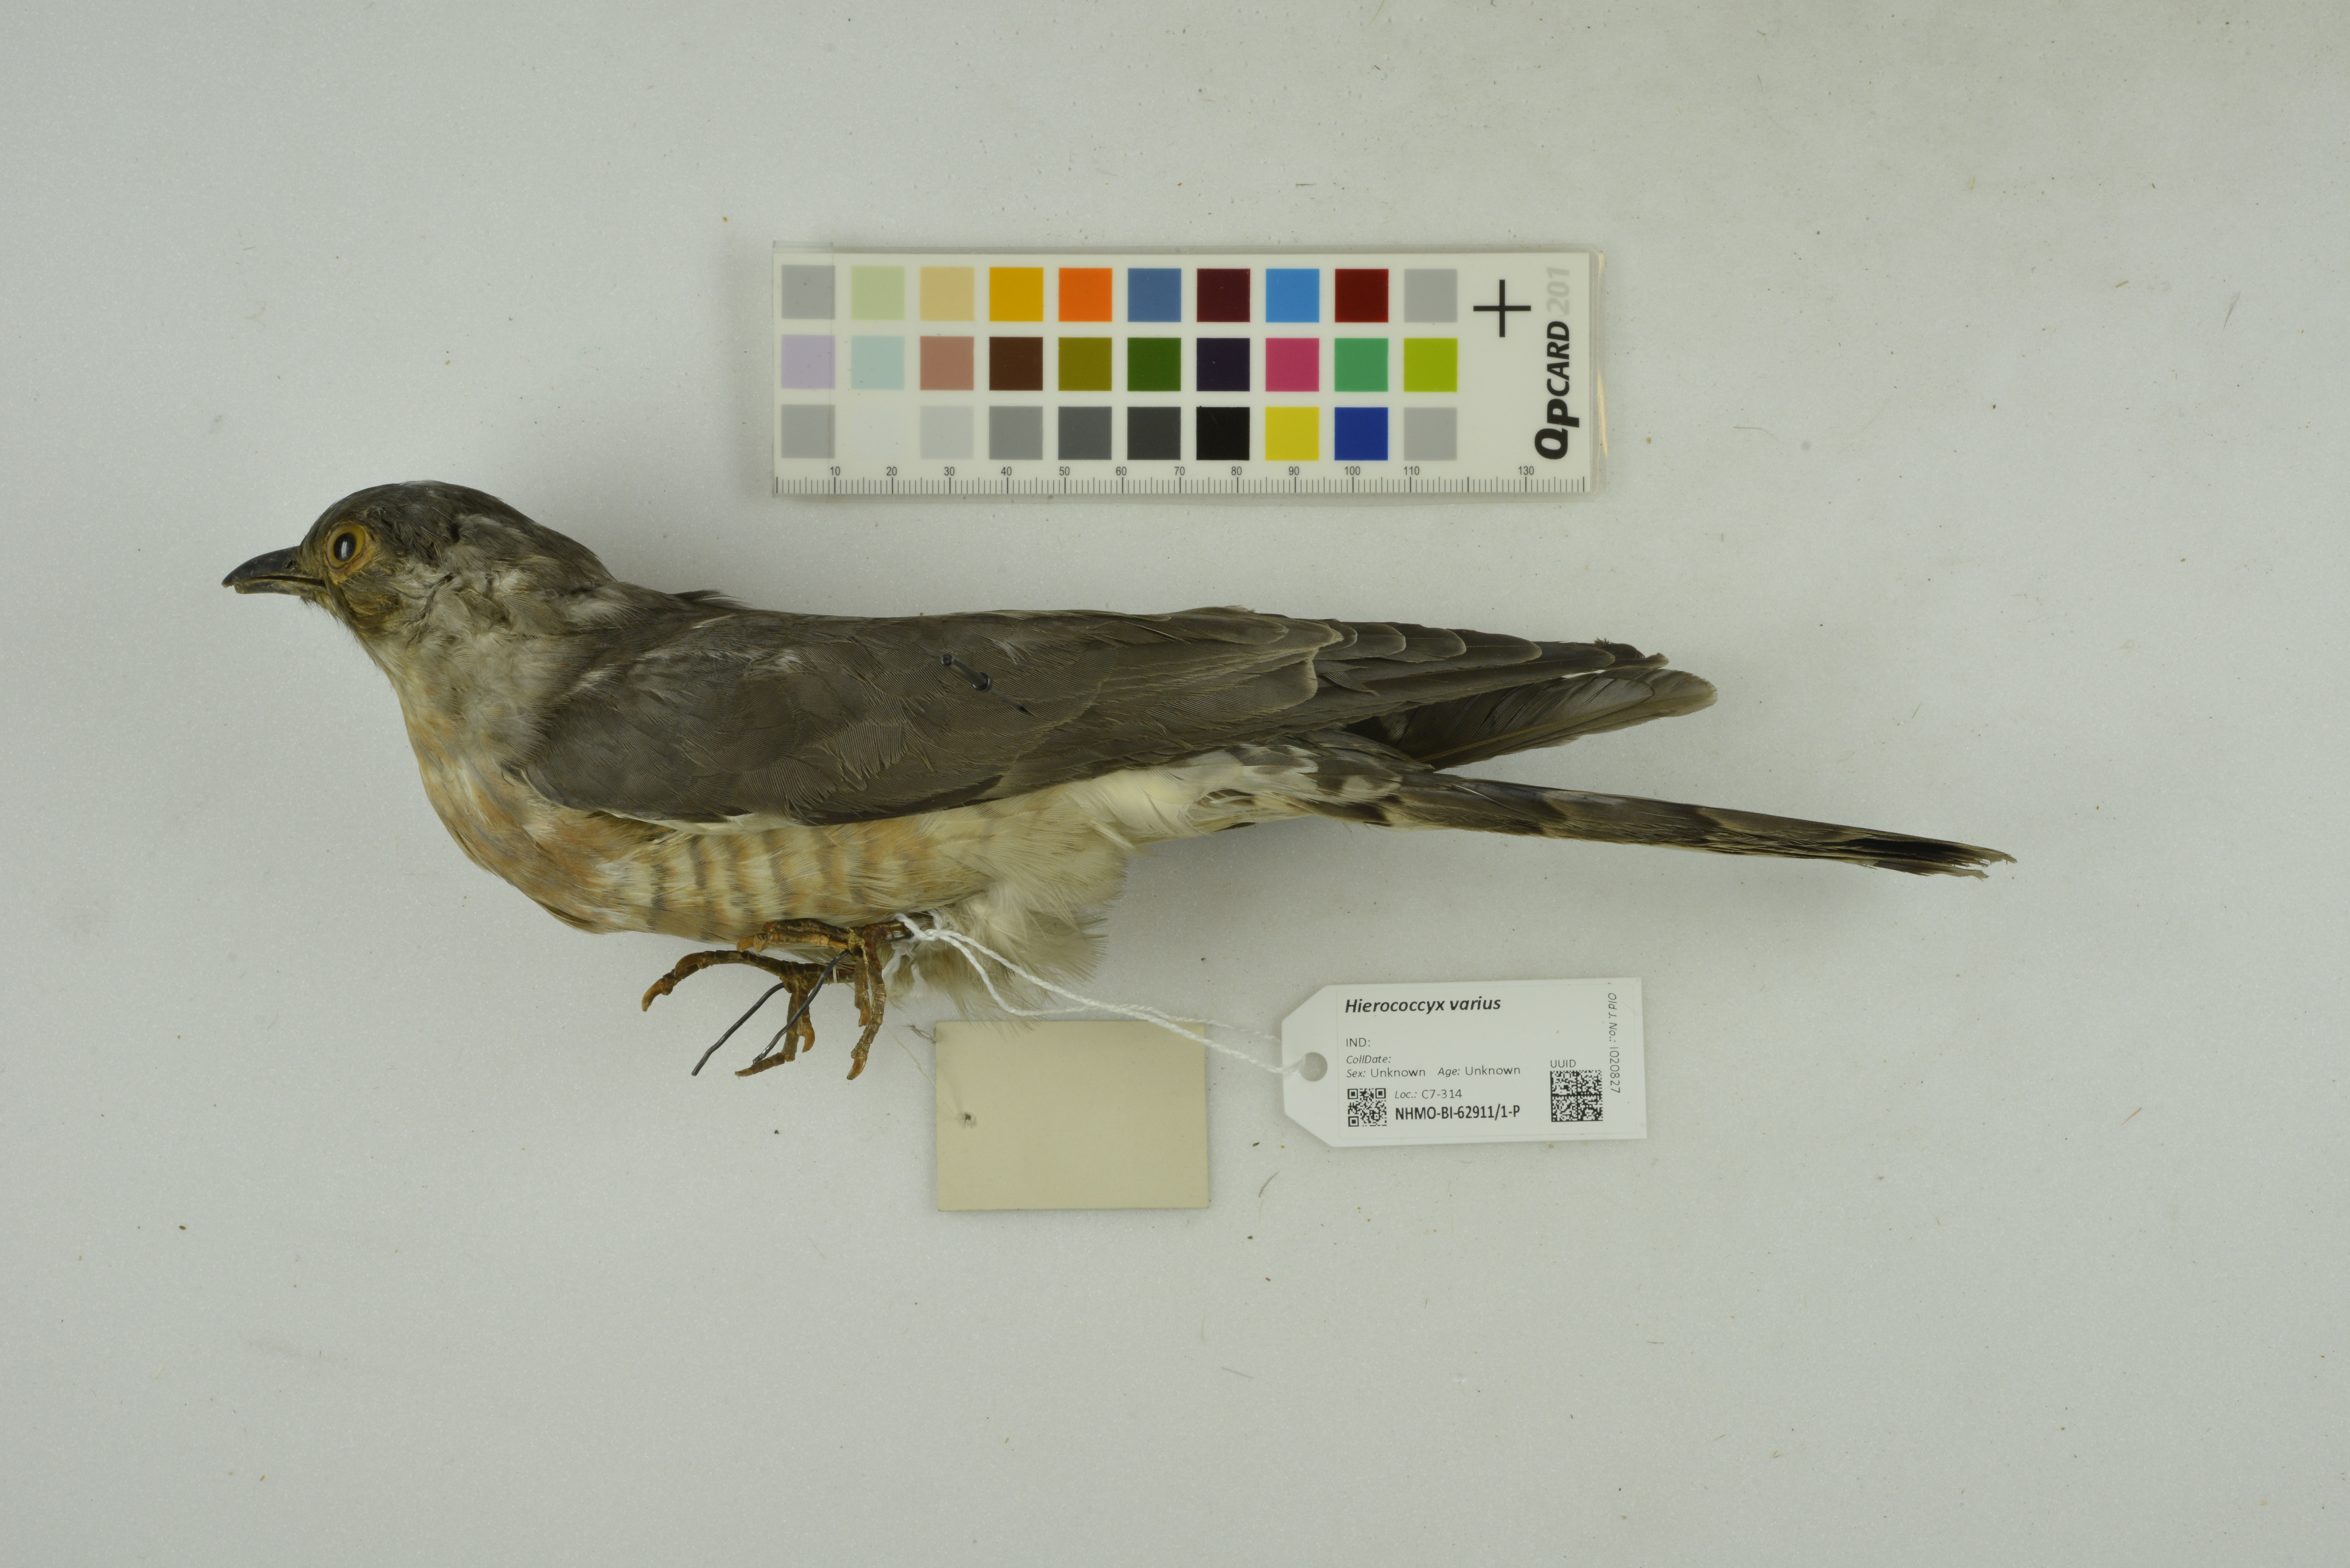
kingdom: Animalia
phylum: Chordata
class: Aves
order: Cuculiformes
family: Cuculidae
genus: Cuculus
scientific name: Cuculus varius
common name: Common hawk cuckoo
